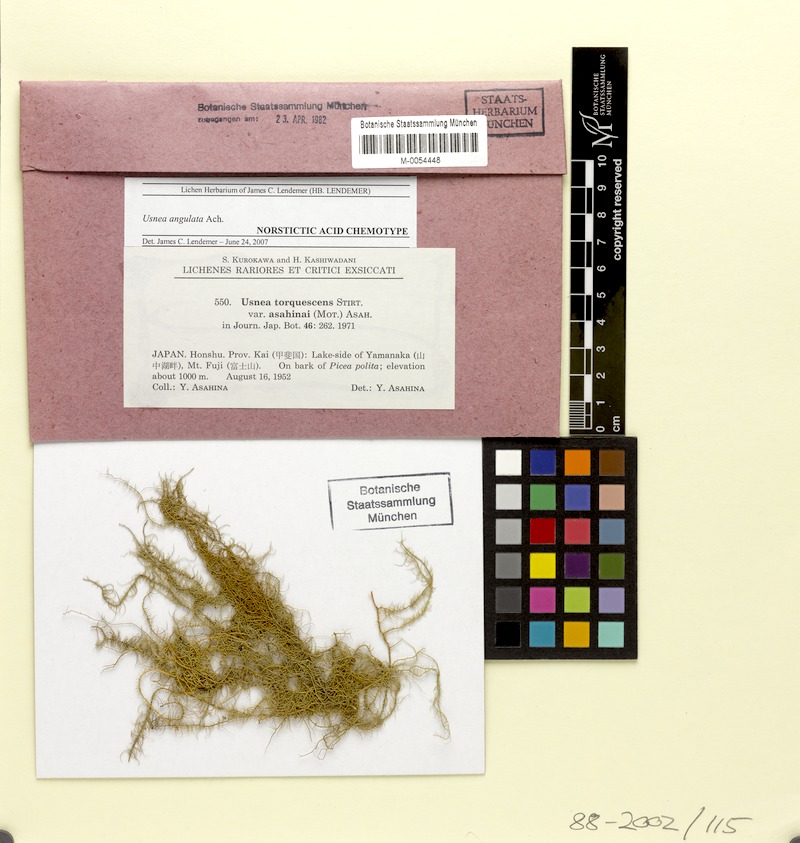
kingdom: Fungi
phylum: Ascomycota
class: Lecanoromycetes
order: Lecanorales
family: Parmeliaceae
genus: Usnea
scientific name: Usnea angulata
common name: Old-man’s beard lichen
